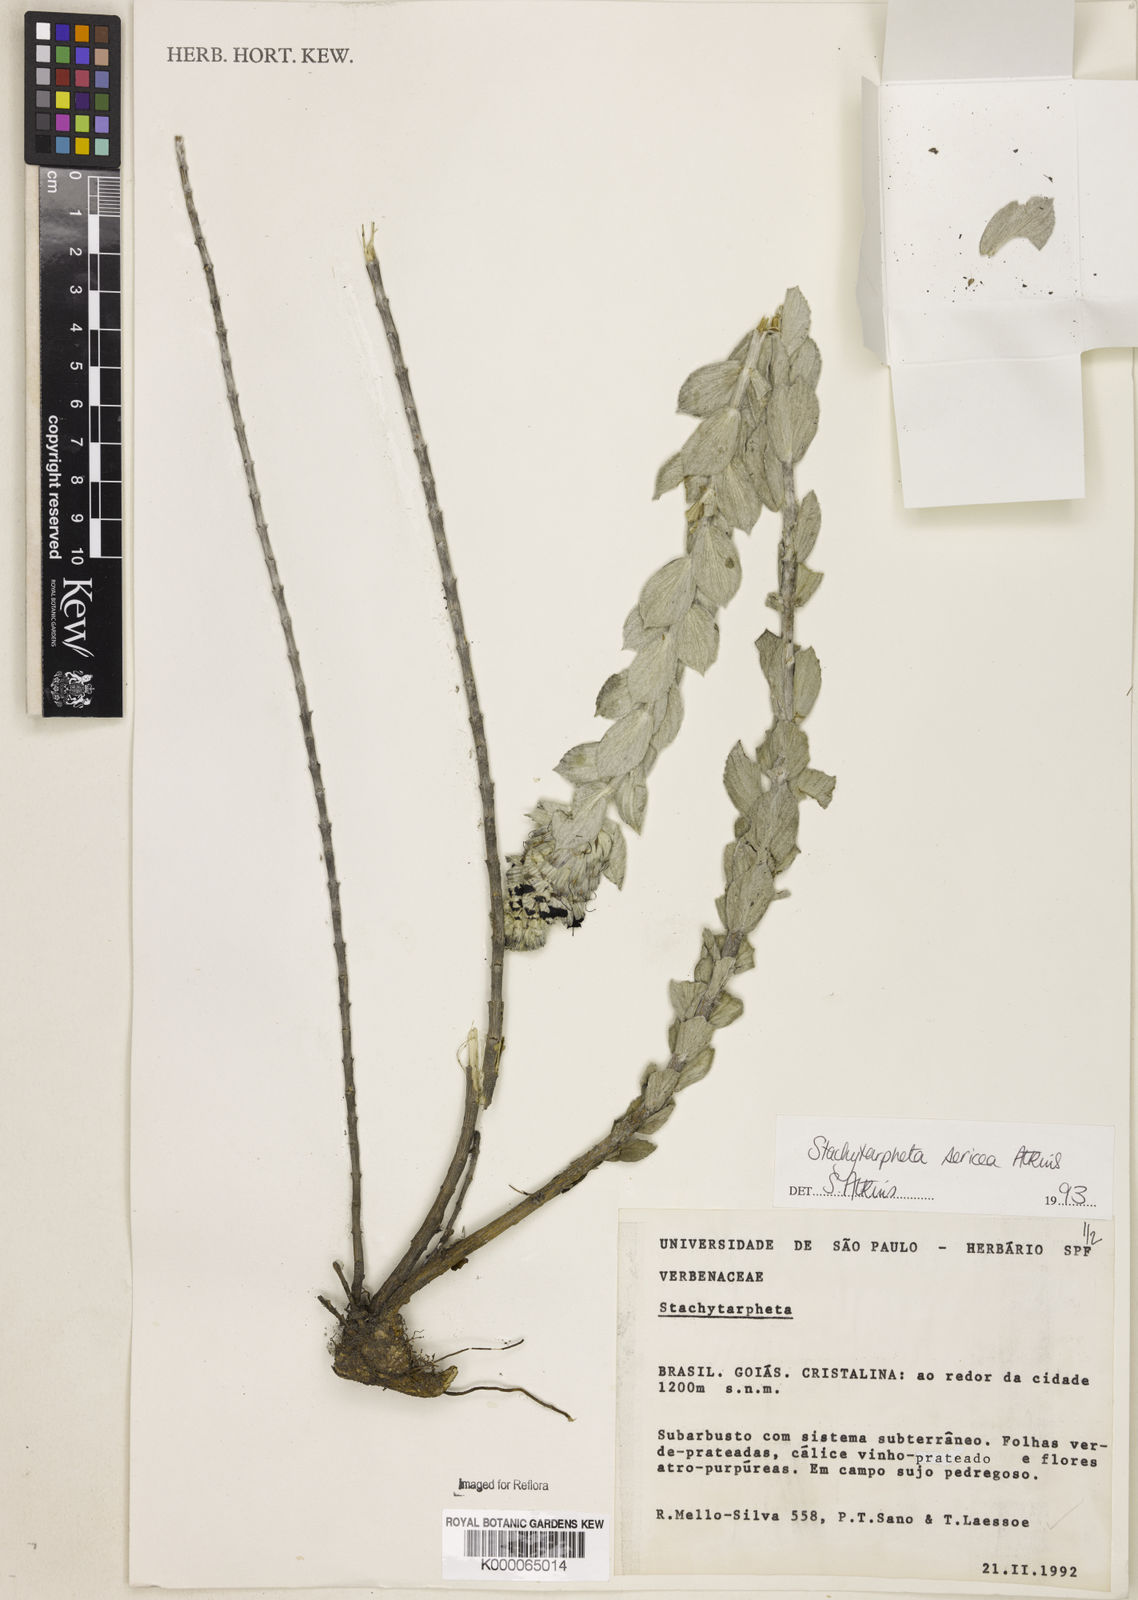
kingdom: Plantae
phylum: Tracheophyta
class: Magnoliopsida
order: Lamiales
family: Verbenaceae
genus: Stachytarpheta
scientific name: Stachytarpheta sericea
